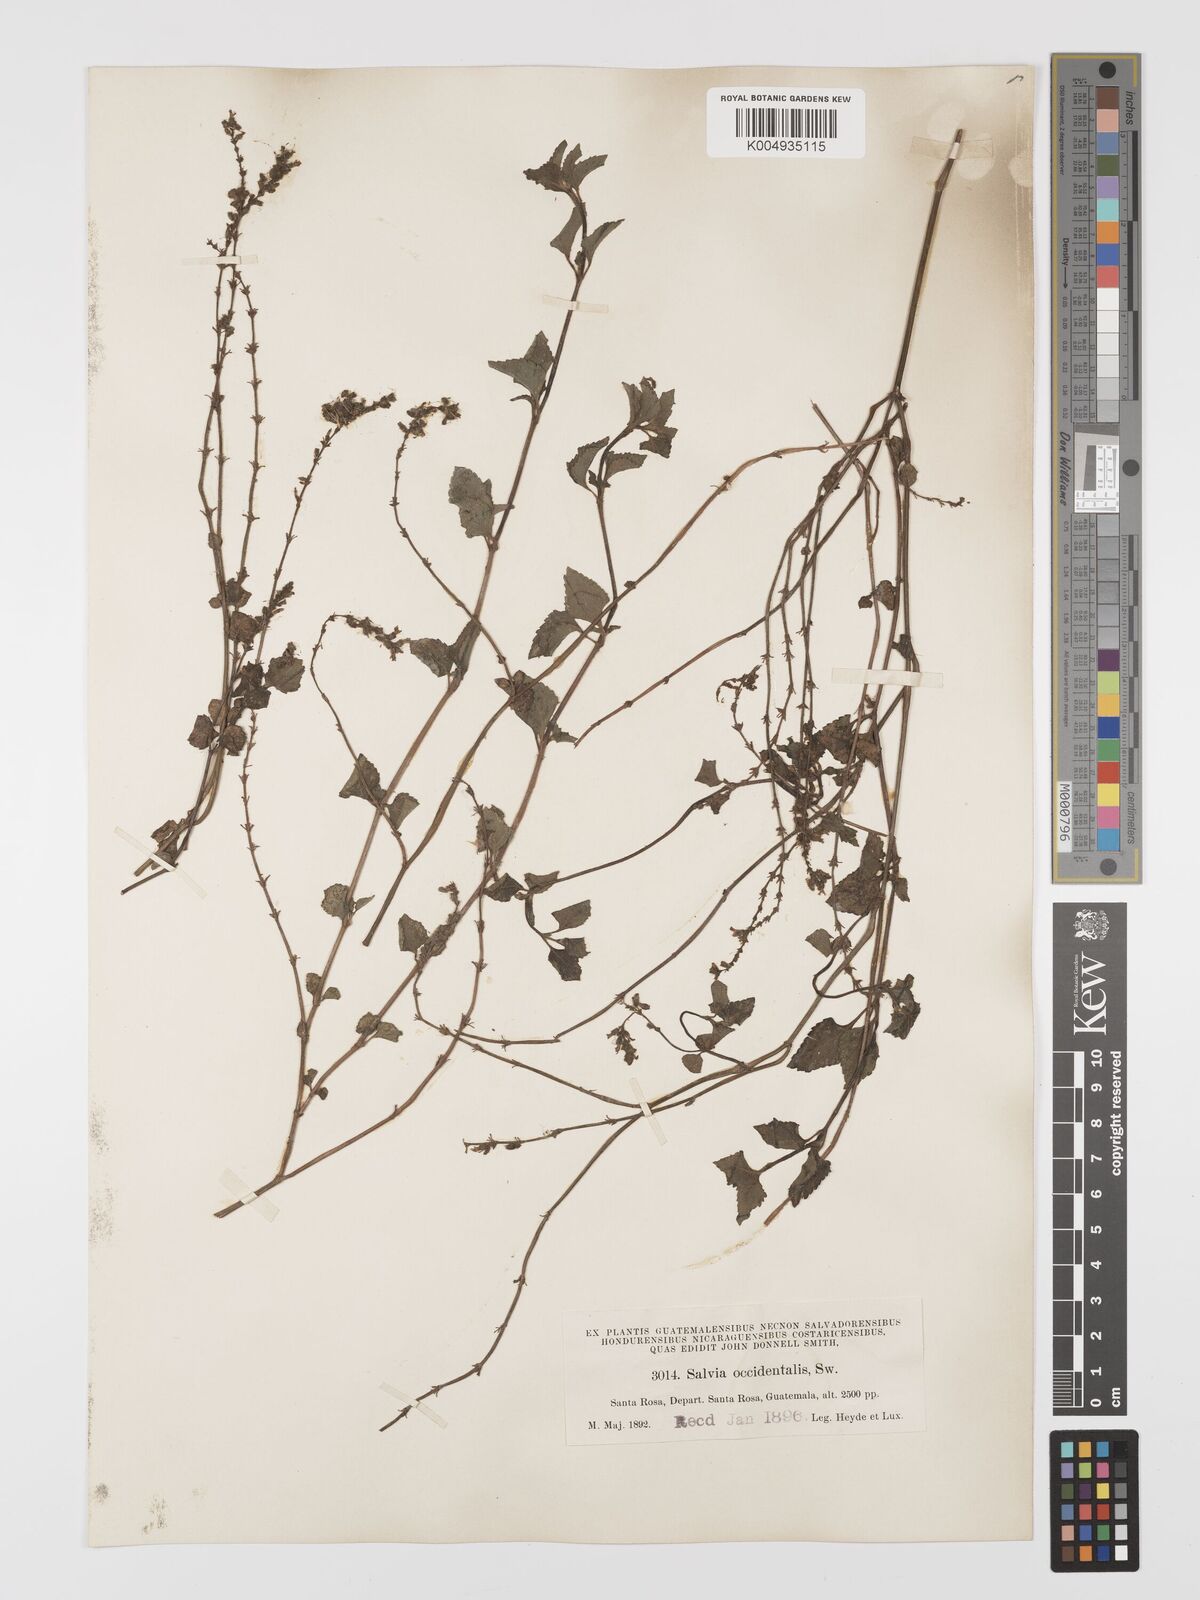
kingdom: Plantae
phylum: Tracheophyta
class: Magnoliopsida
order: Lamiales
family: Lamiaceae
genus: Salvia
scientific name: Salvia occidentalis
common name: West indian sage
